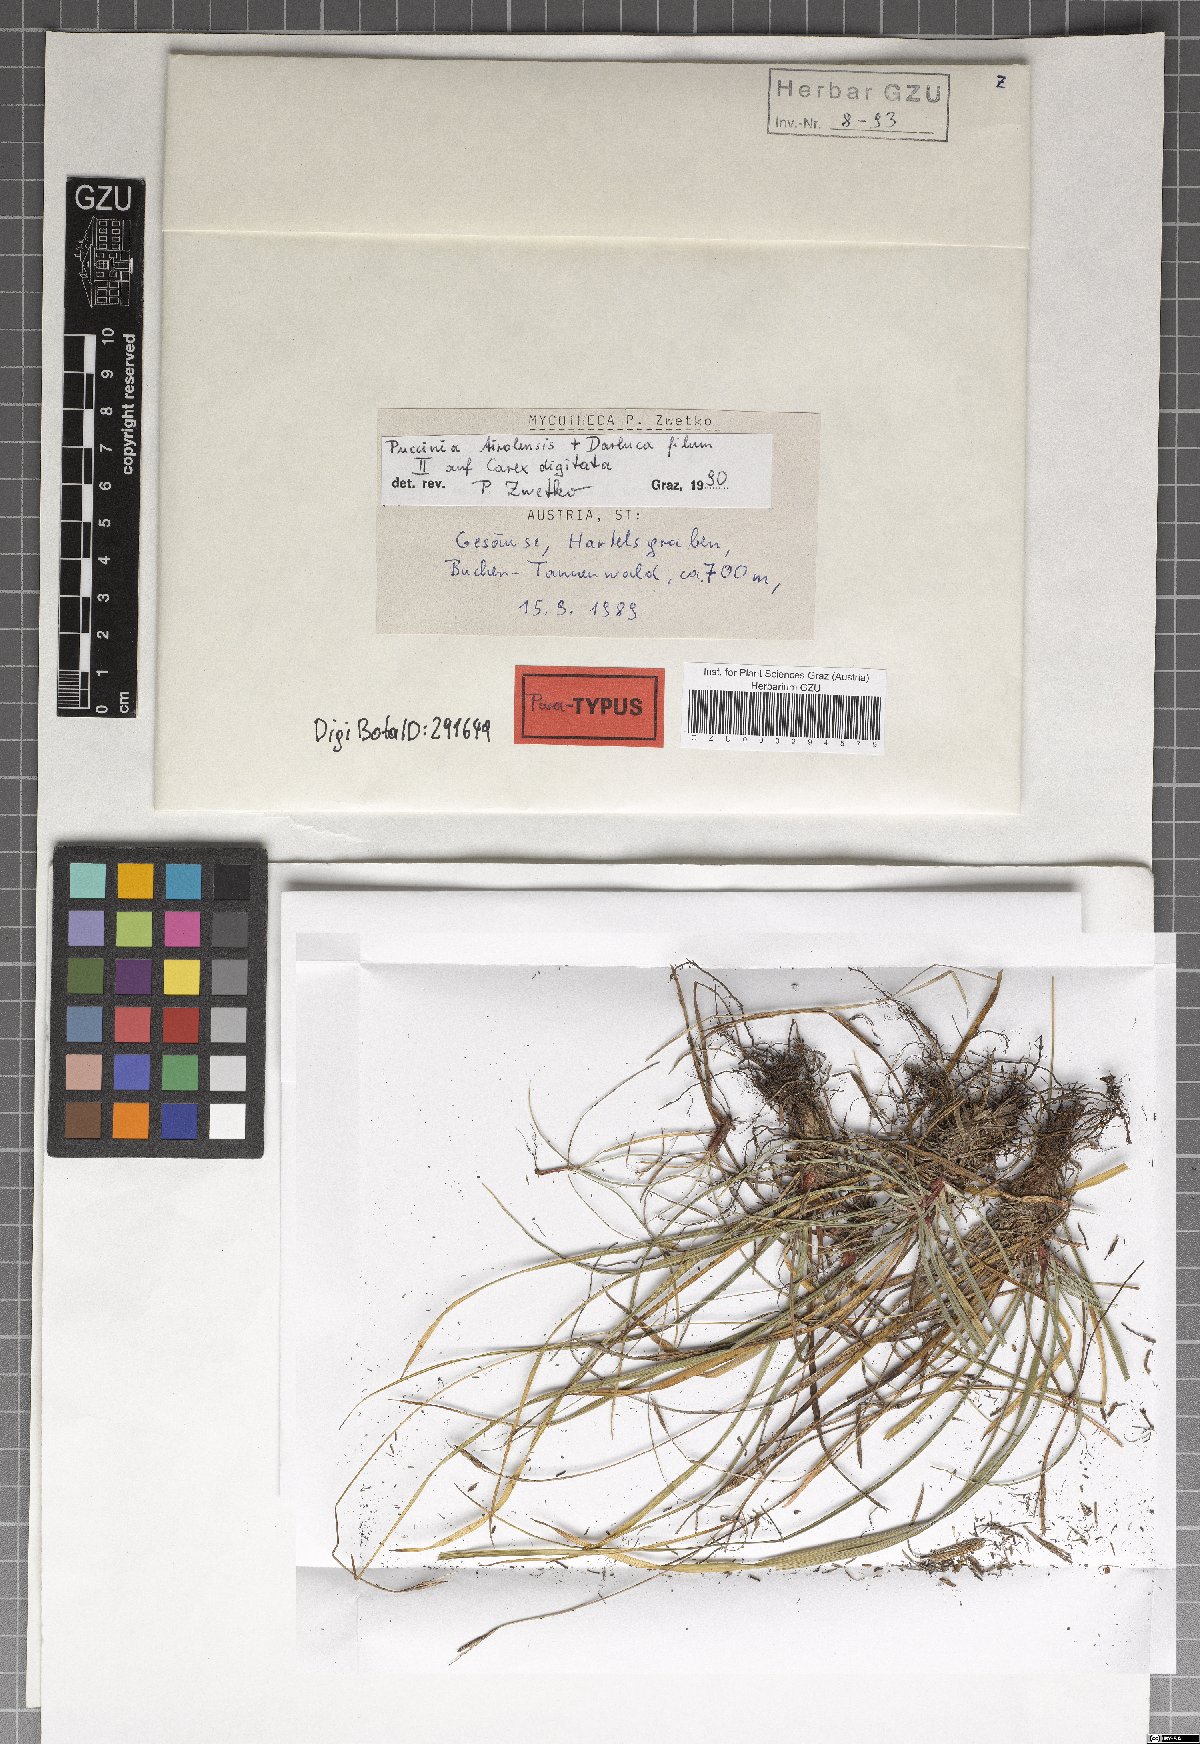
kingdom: Fungi
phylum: Basidiomycota
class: Pucciniomycetes
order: Pucciniales
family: Pucciniaceae
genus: Puccinia
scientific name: Puccinia tirolensis
